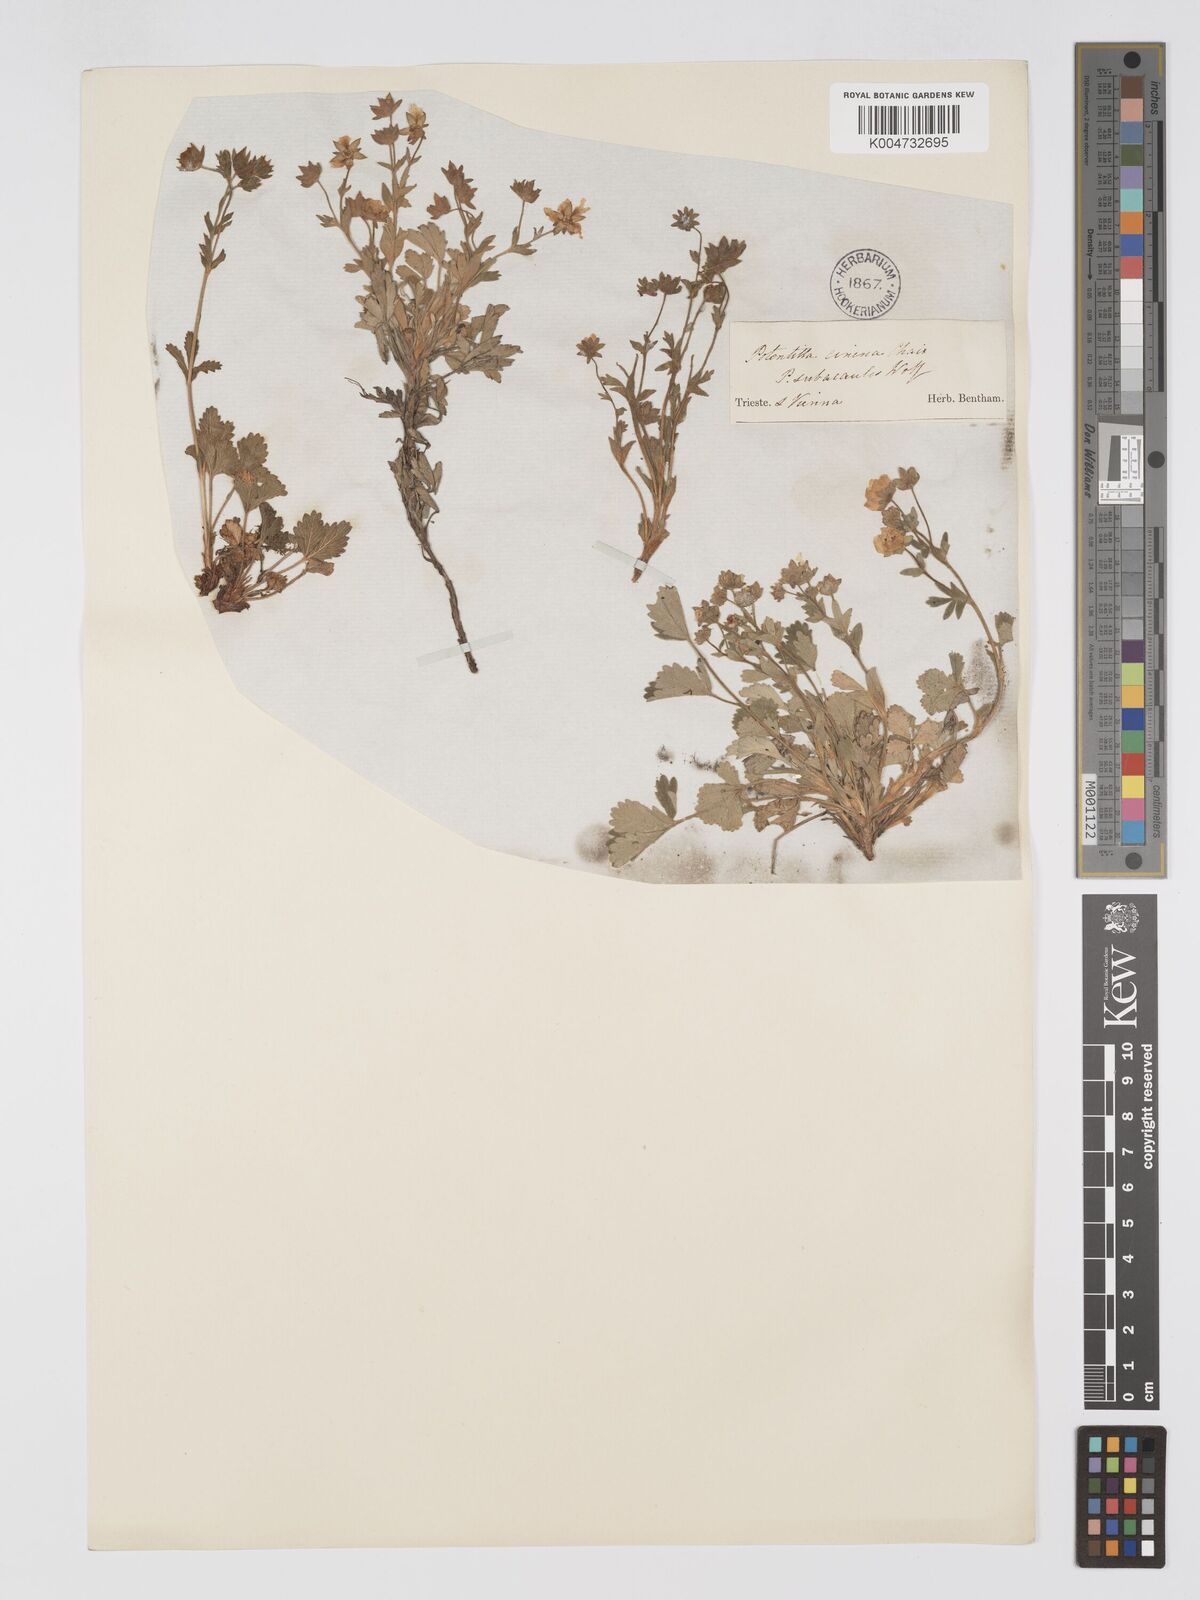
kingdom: Plantae
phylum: Tracheophyta
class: Magnoliopsida
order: Rosales
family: Rosaceae
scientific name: Rosaceae
